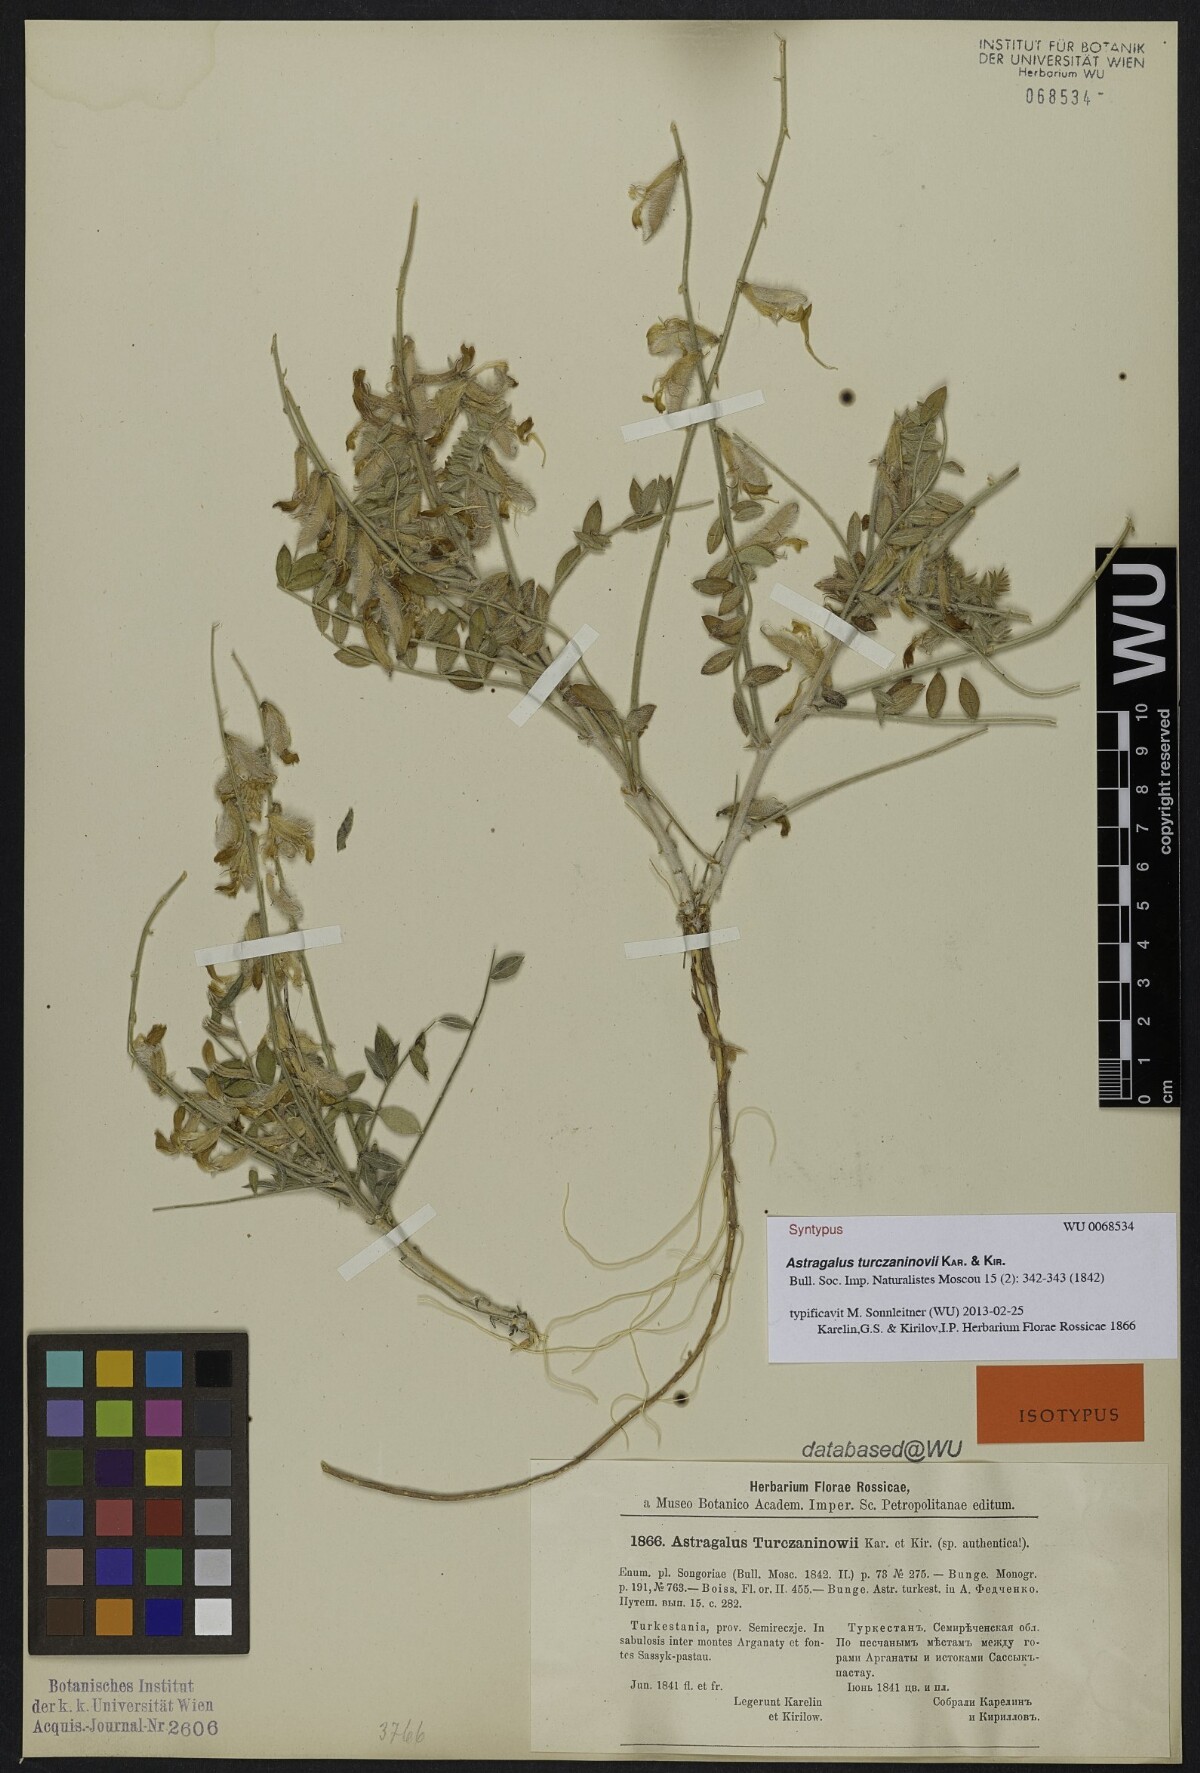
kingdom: Plantae
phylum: Tracheophyta
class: Magnoliopsida
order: Fabales
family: Fabaceae
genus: Astragalus
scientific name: Astragalus turczaninovii
